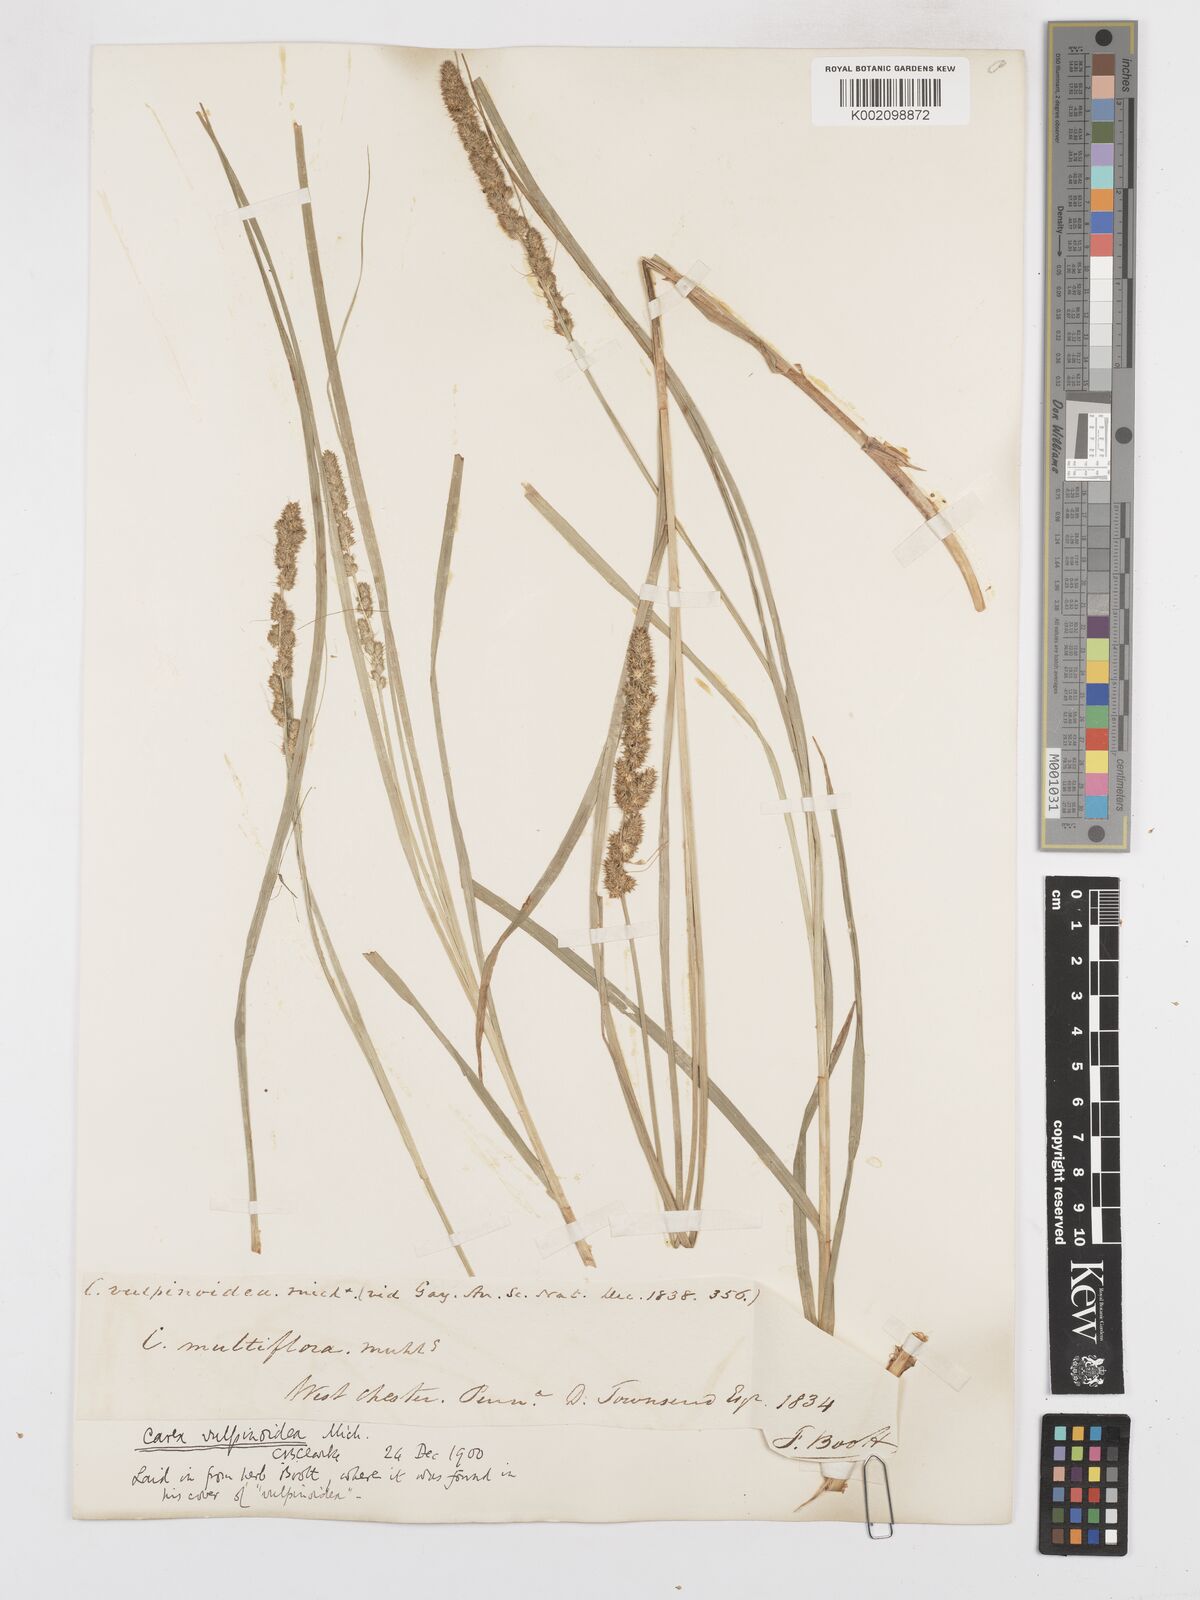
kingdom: Plantae
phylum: Tracheophyta
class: Liliopsida
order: Poales
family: Cyperaceae
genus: Carex
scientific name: Carex vulpinoidea
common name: American fox-sedge
